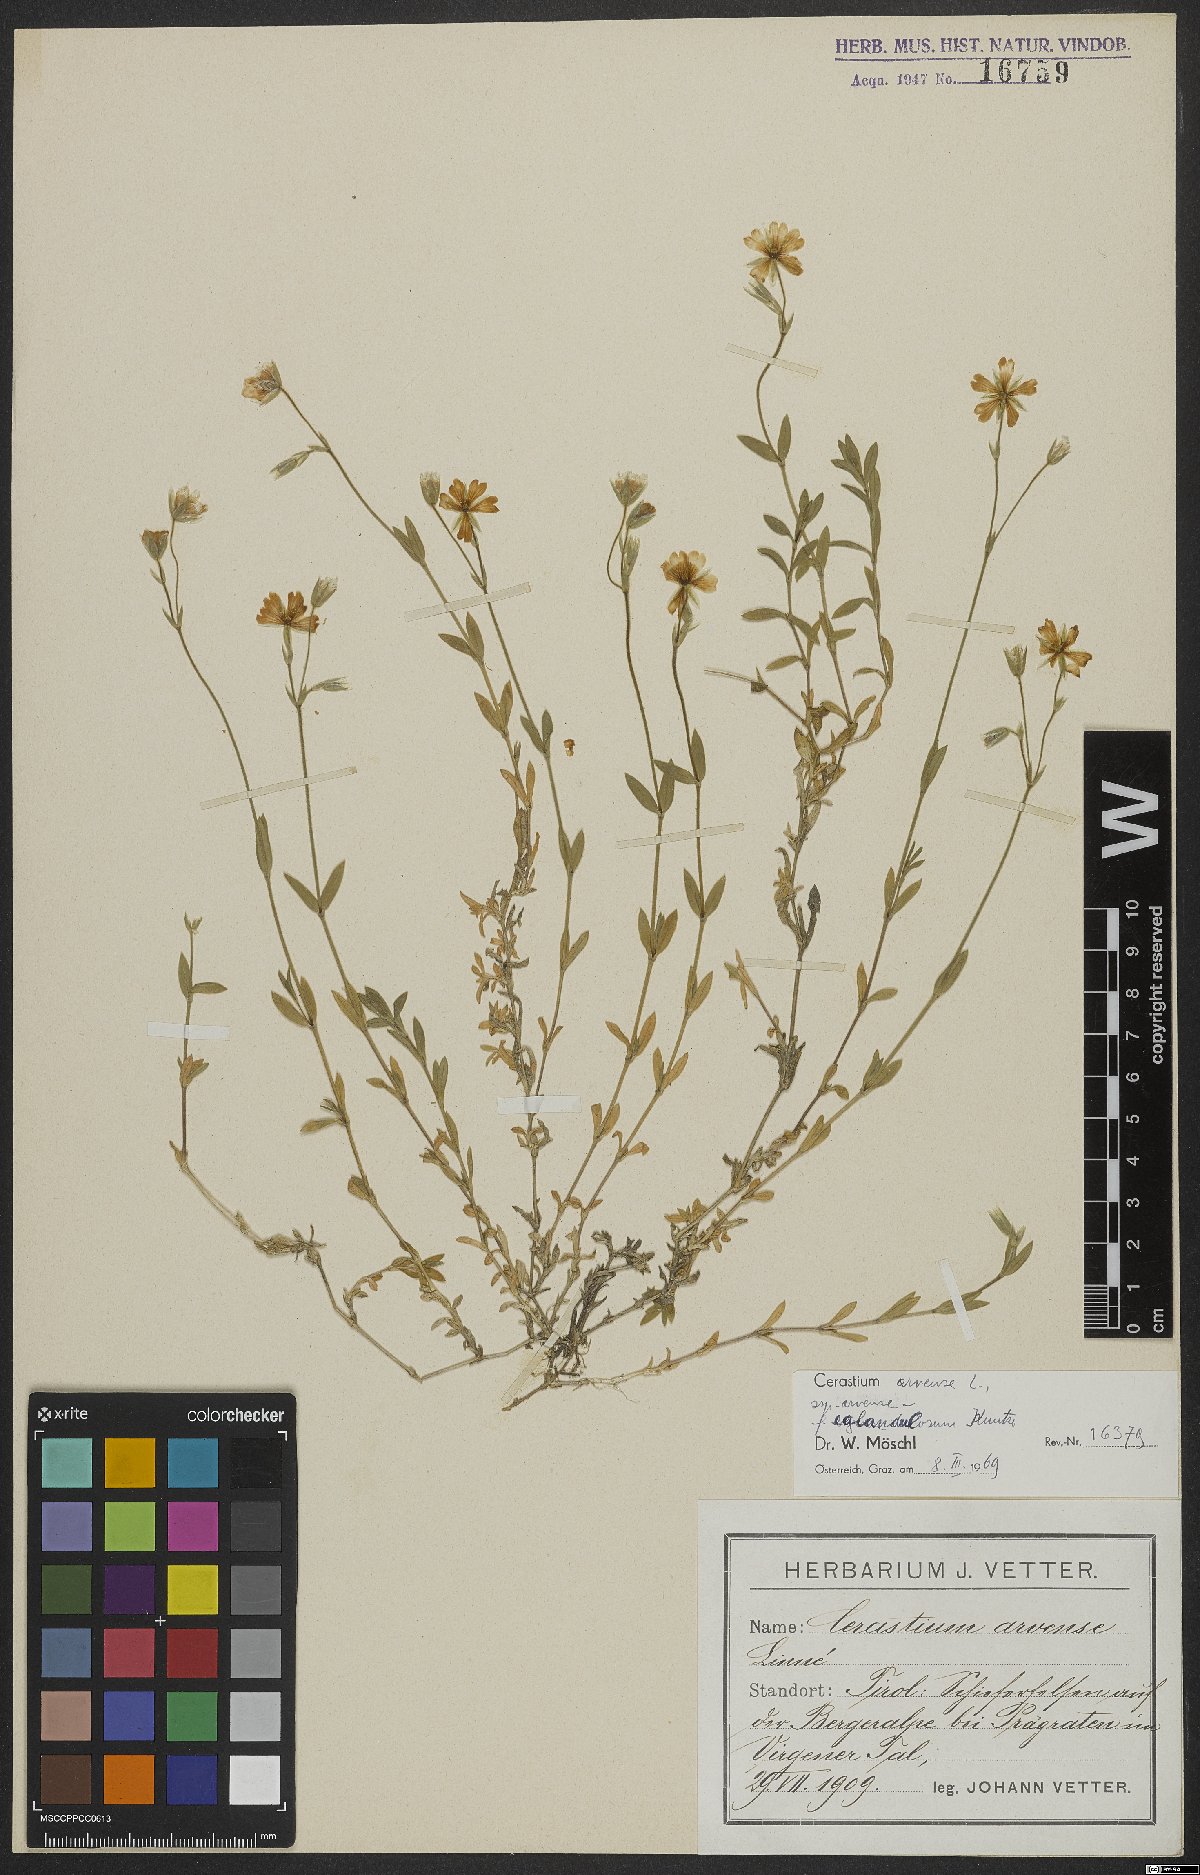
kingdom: Plantae
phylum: Tracheophyta
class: Magnoliopsida
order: Caryophyllales
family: Caryophyllaceae
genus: Cerastium
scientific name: Cerastium arvense
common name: Field mouse-ear
